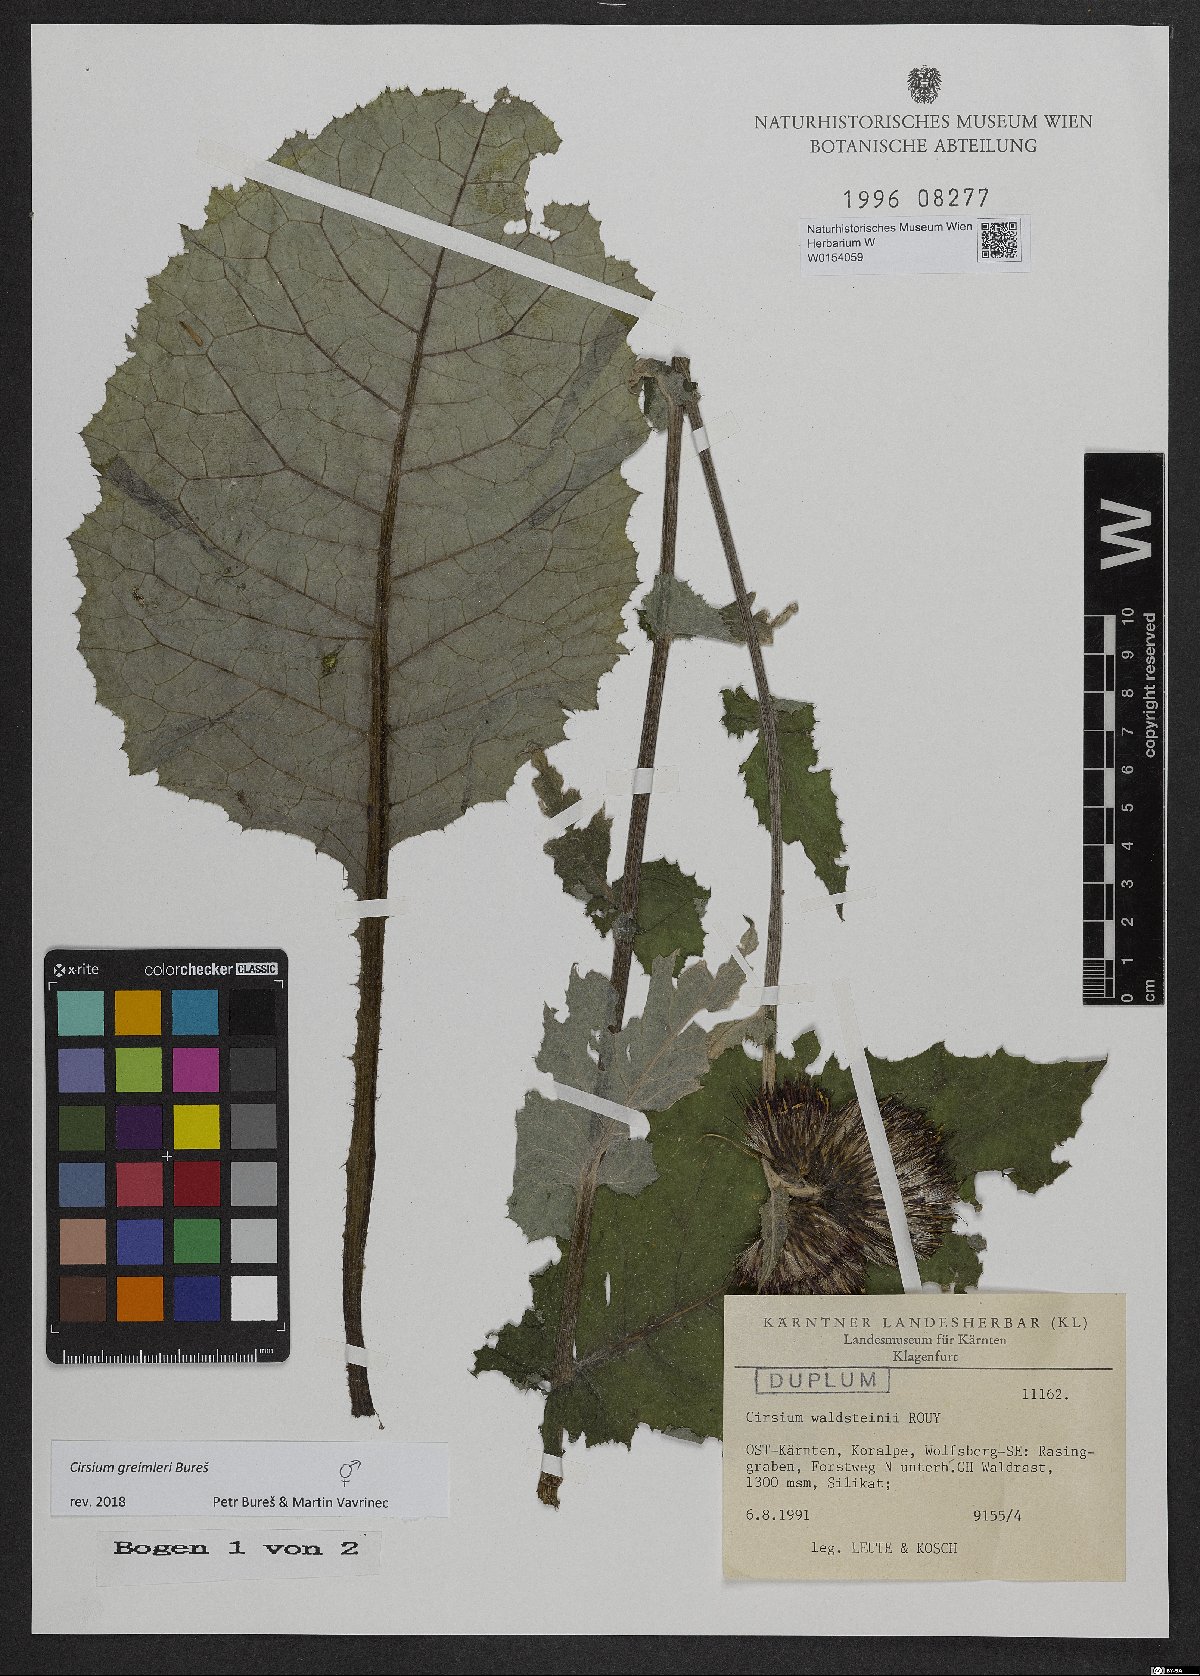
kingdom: Plantae
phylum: Tracheophyta
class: Magnoliopsida
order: Asterales
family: Asteraceae
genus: Cirsium
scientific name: Cirsium greimleri
